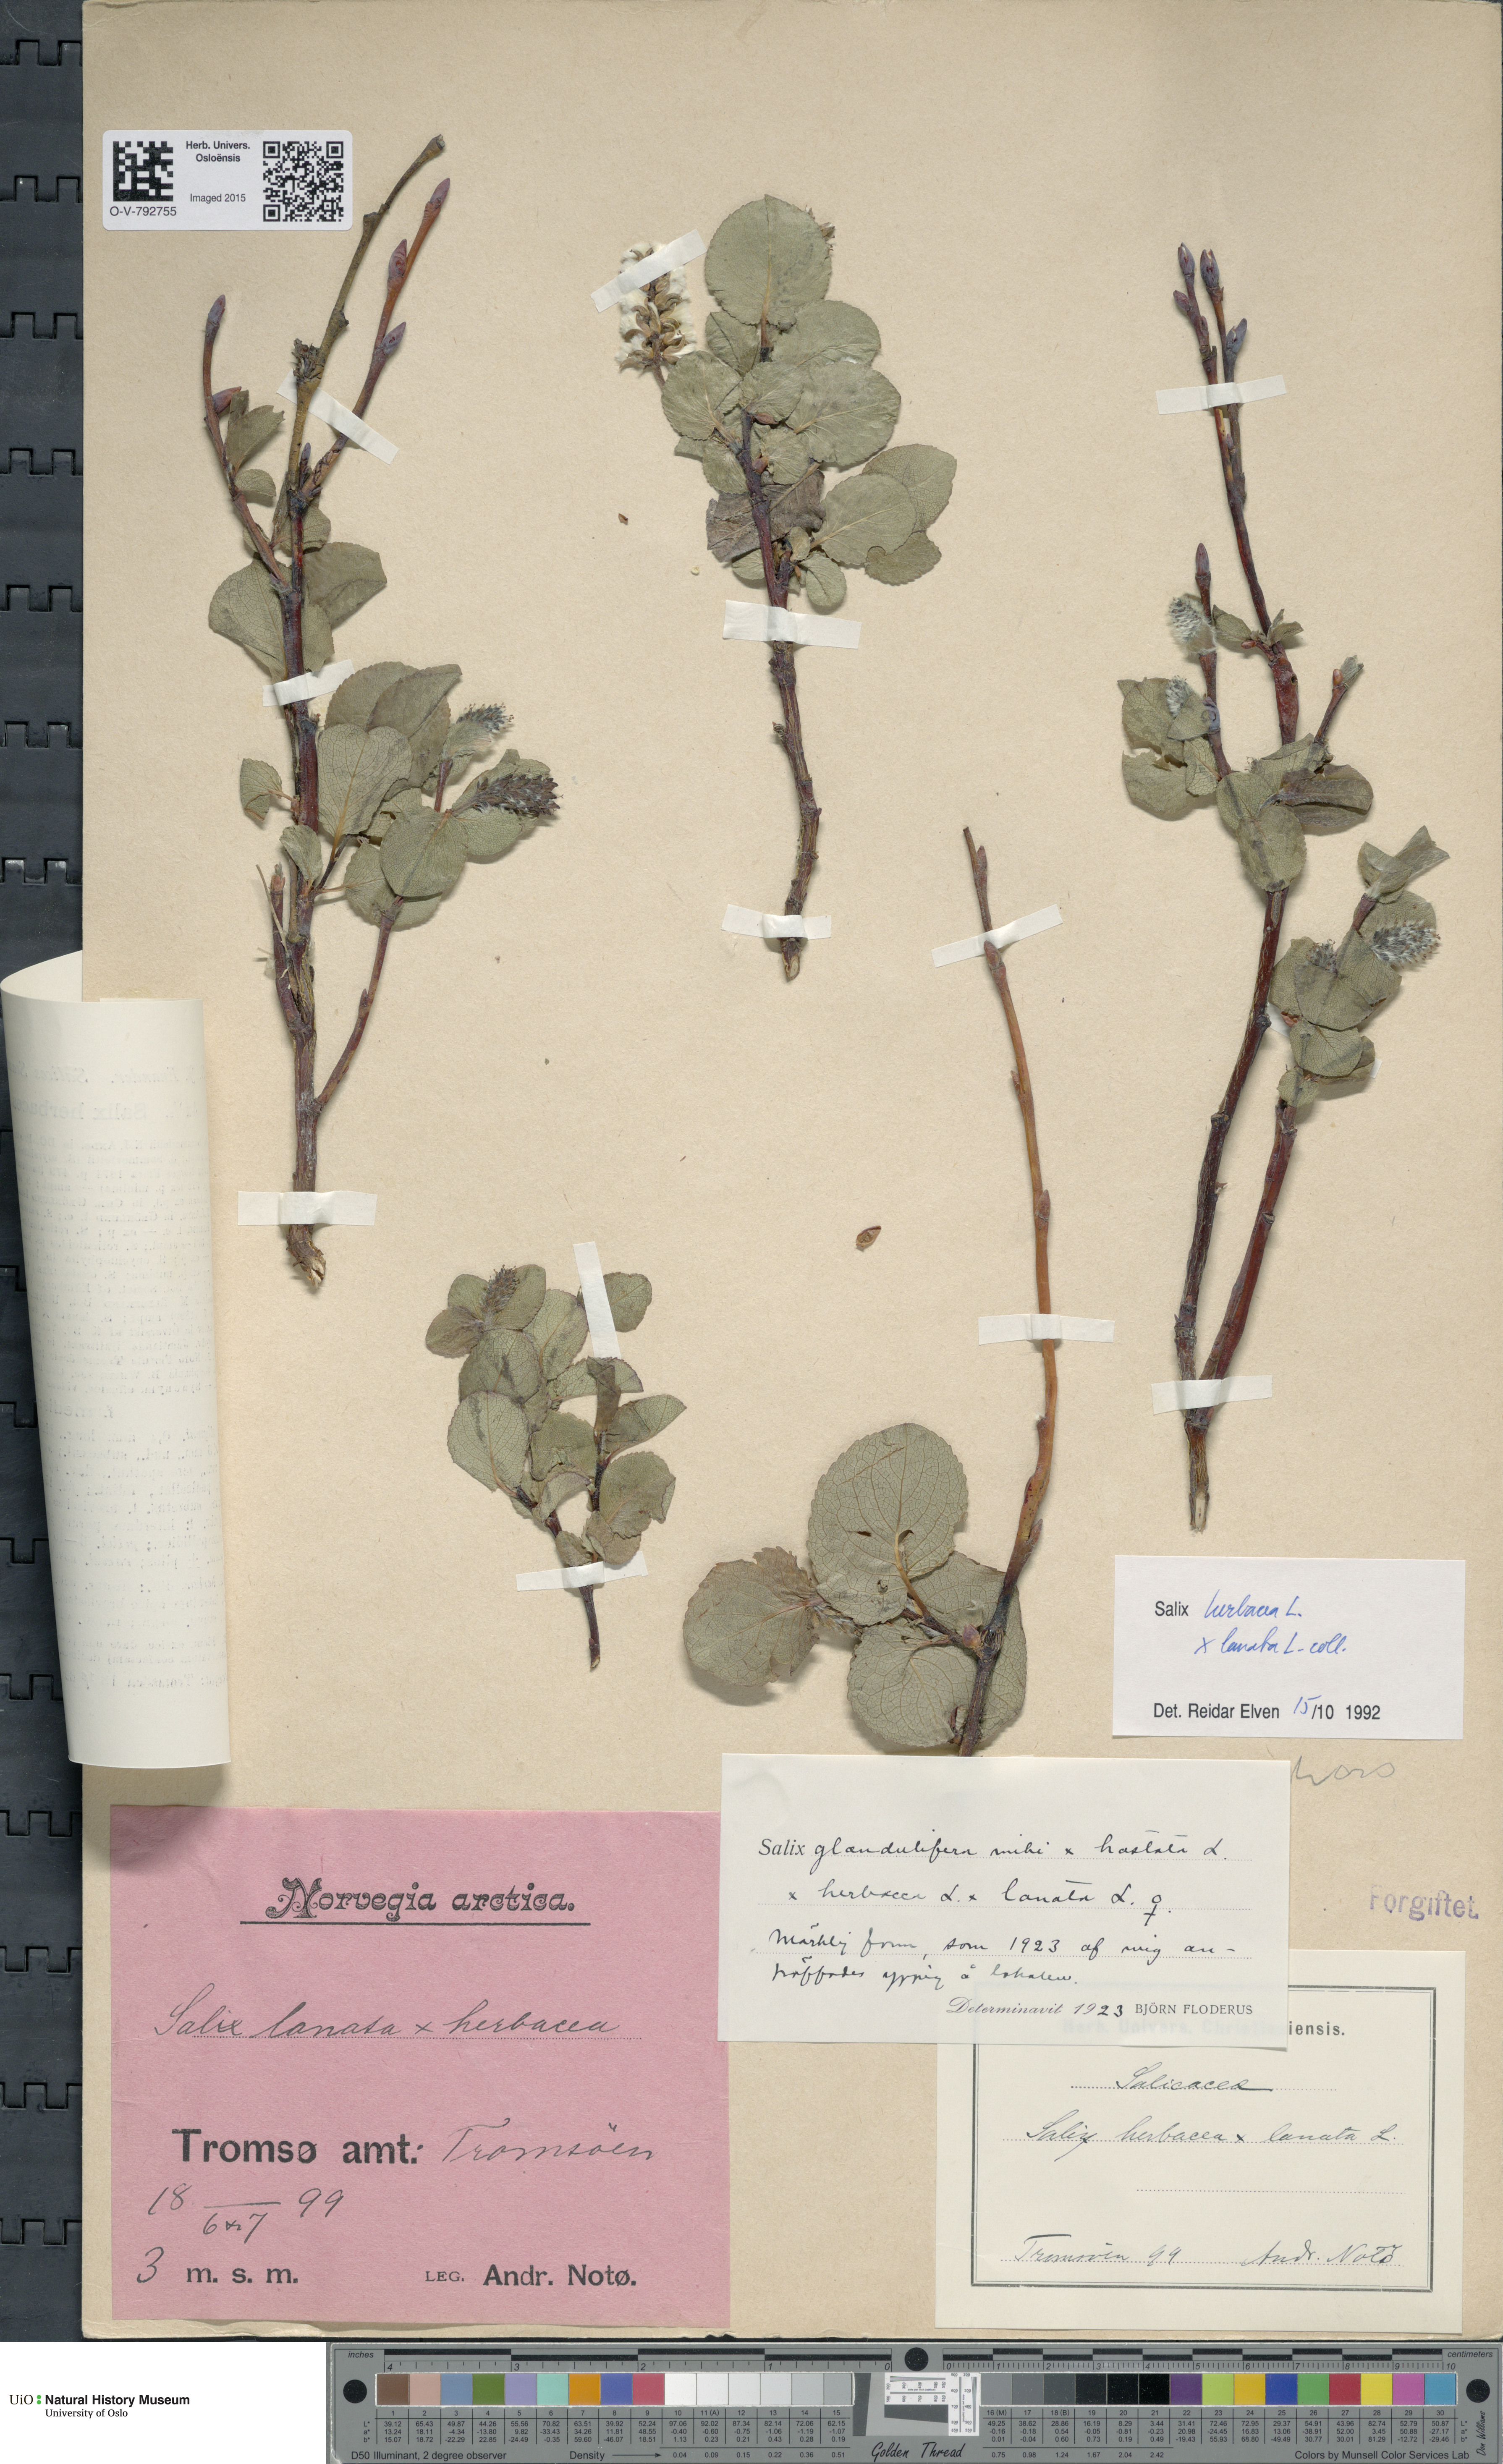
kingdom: Plantae
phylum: Tracheophyta
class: Magnoliopsida
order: Malpighiales
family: Salicaceae
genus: Salix
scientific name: Salix
